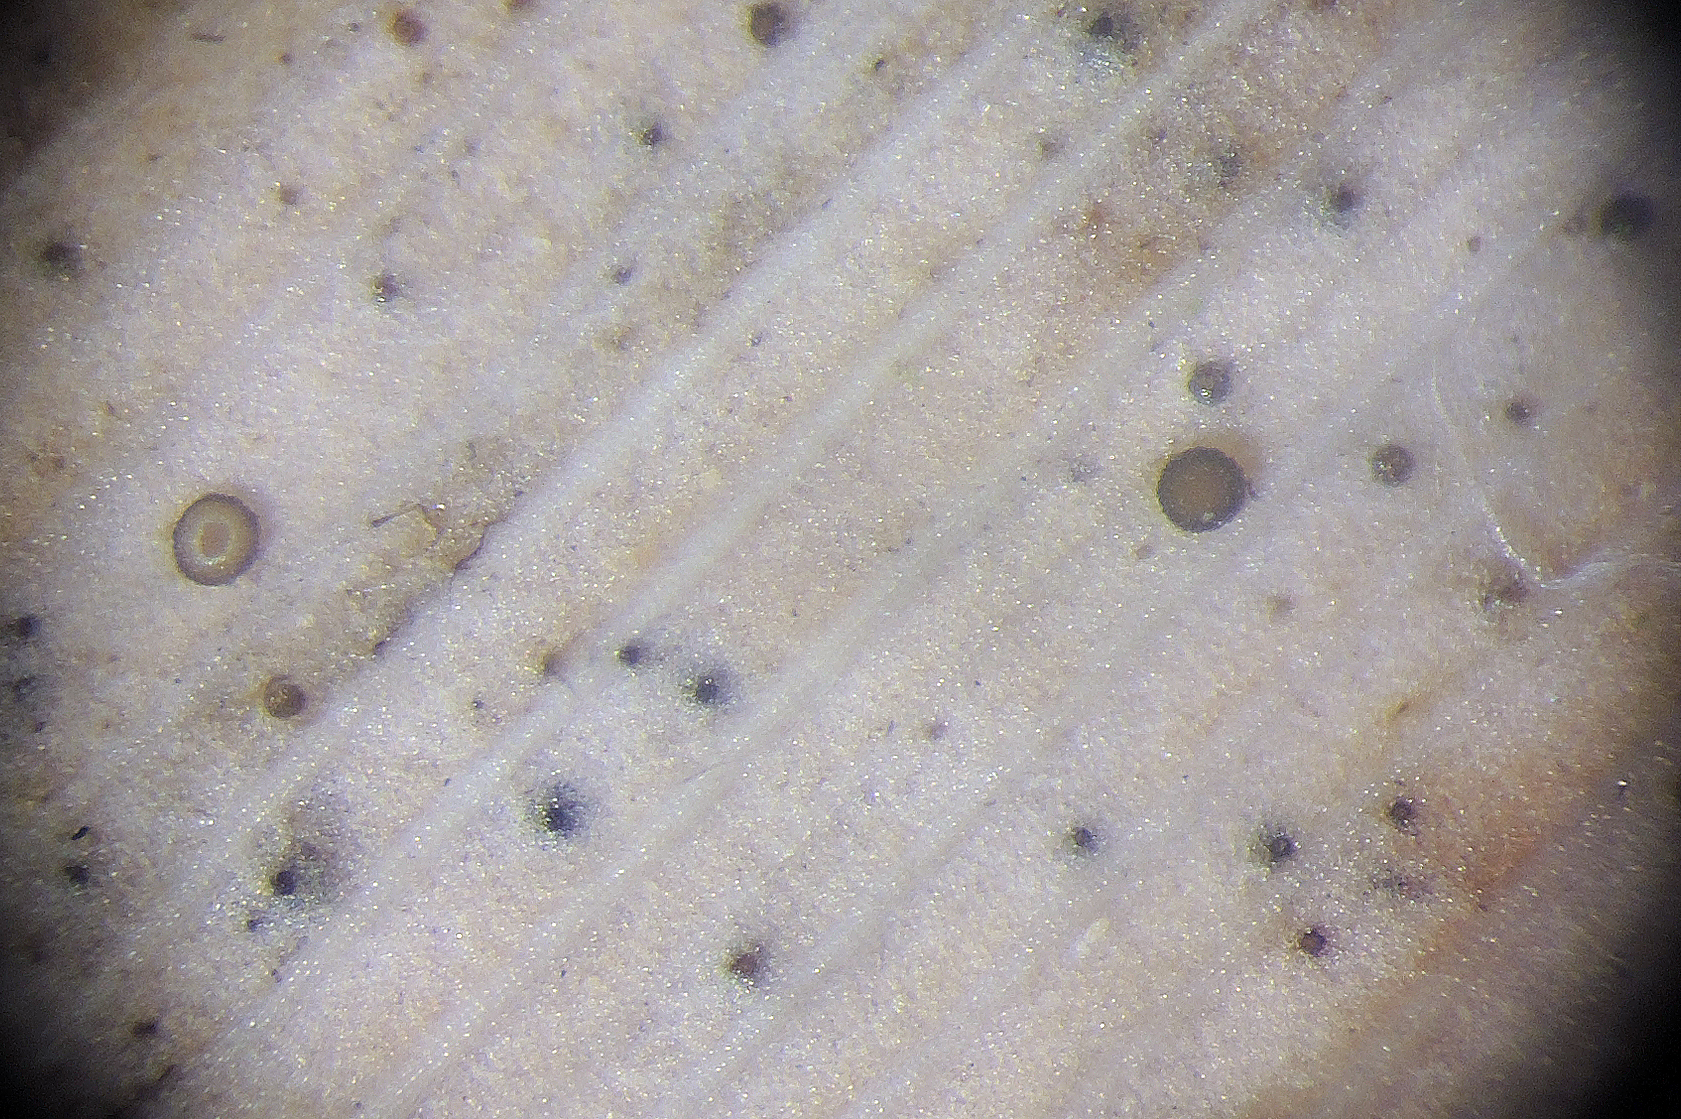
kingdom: Fungi
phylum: Ascomycota
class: Leotiomycetes
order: Helotiales
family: Dermateaceae
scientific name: Dermateaceae
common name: gråskivefamilien
